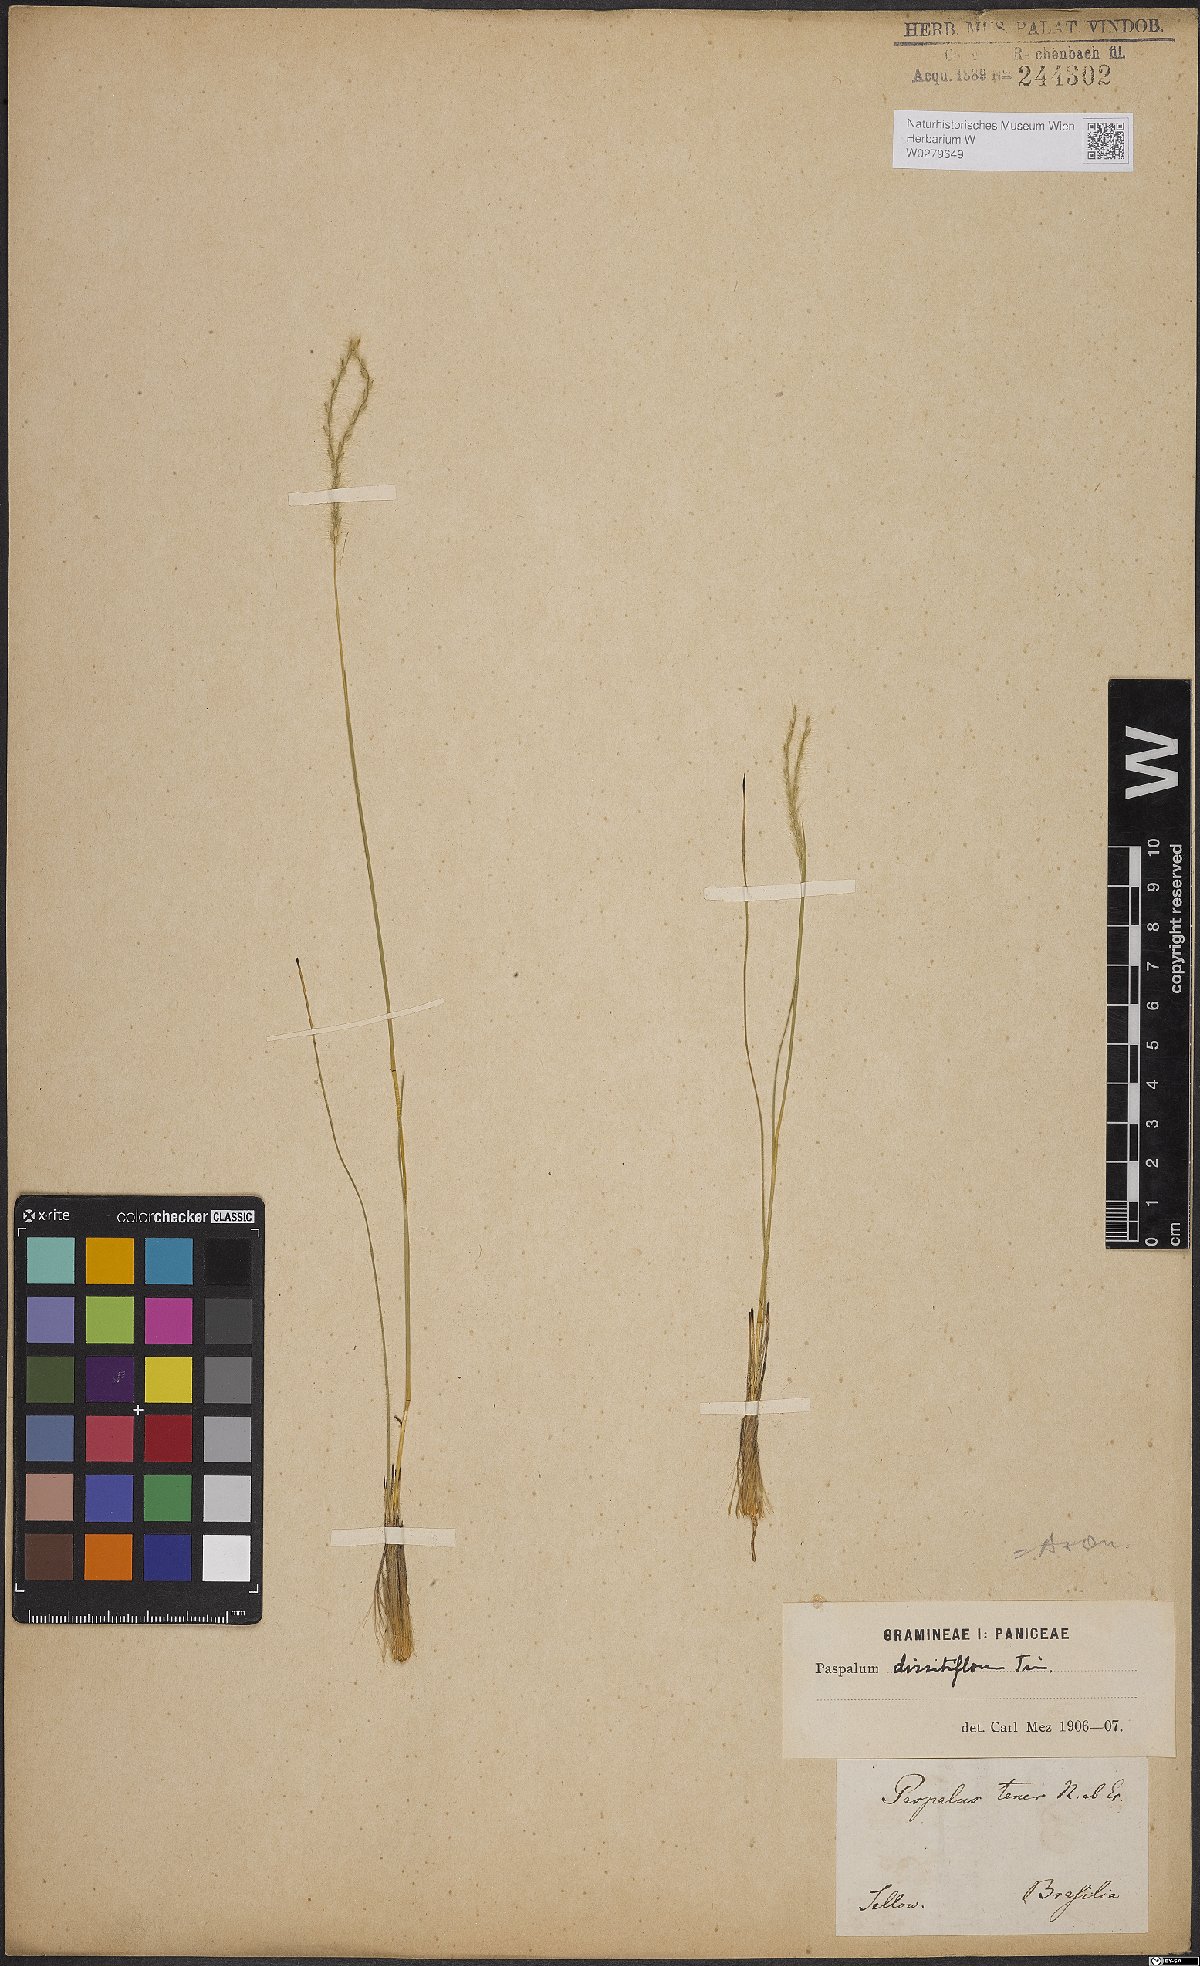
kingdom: Plantae
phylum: Tracheophyta
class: Liliopsida
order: Poales
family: Poaceae
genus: Axonopus
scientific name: Axonopus brasiliensis
